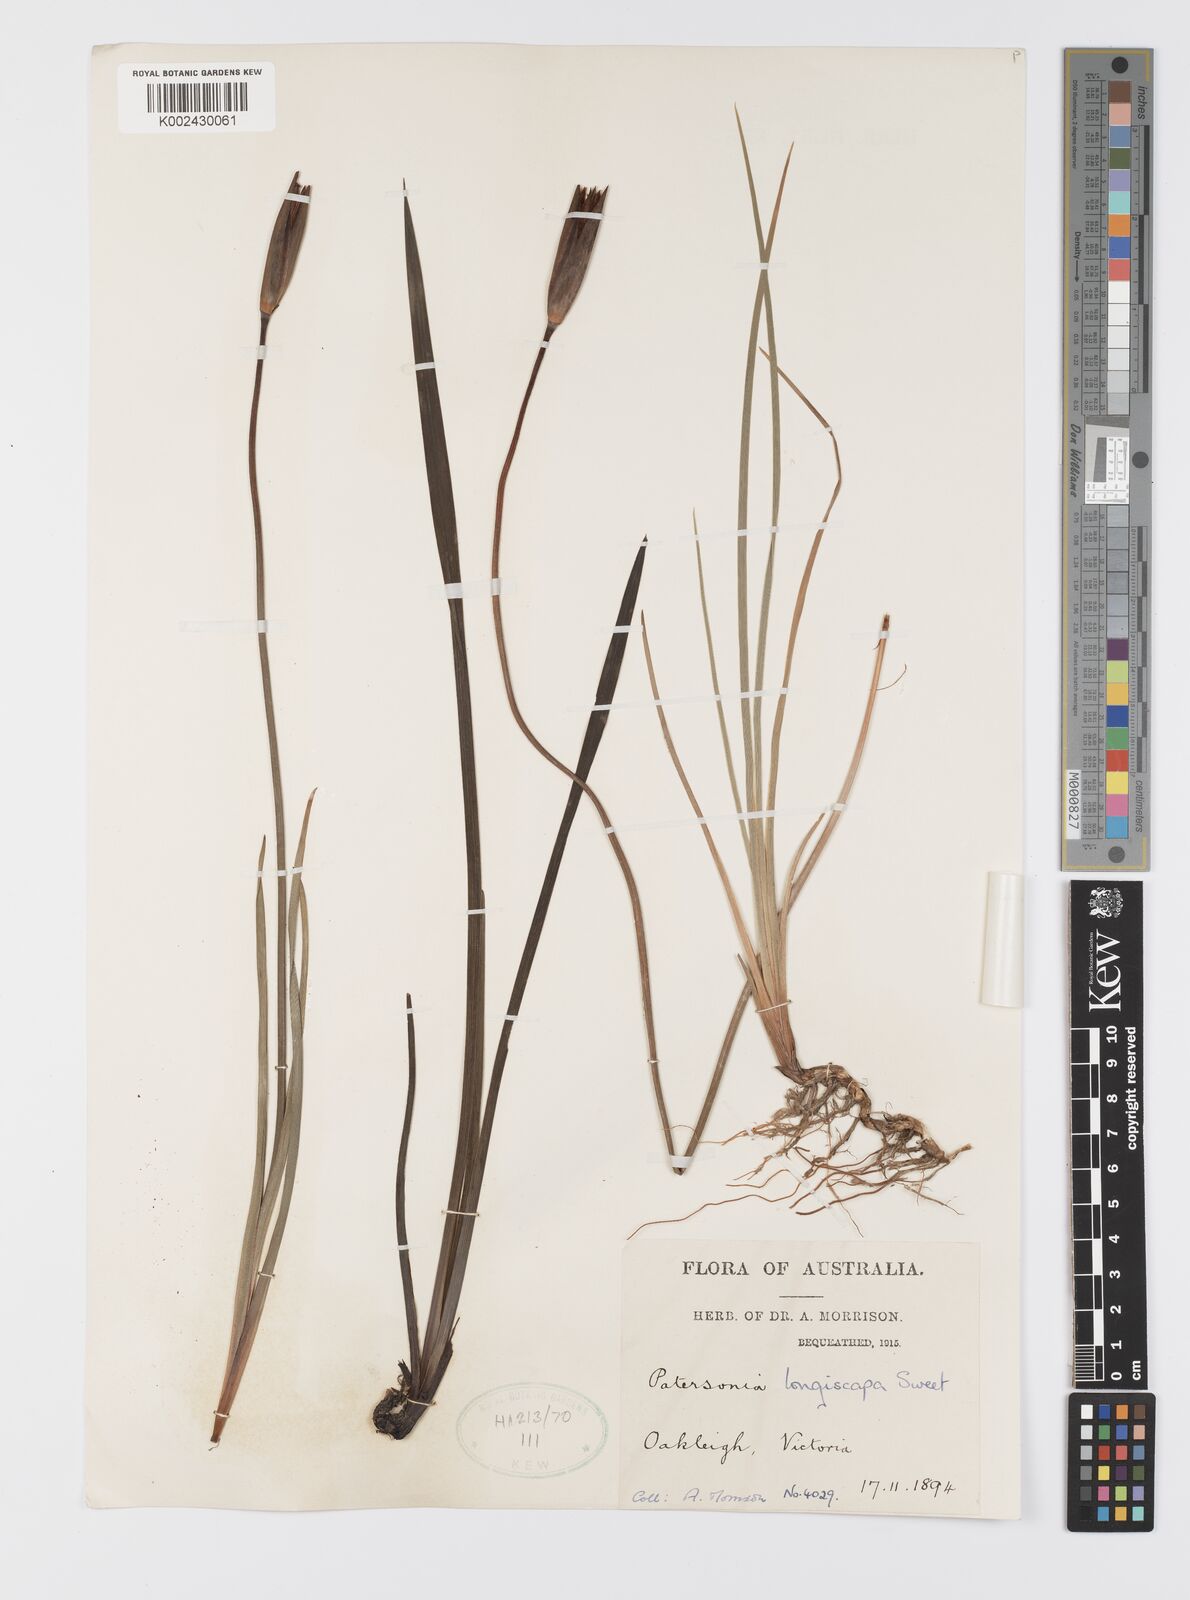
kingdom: Plantae
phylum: Tracheophyta
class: Liliopsida
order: Asparagales
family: Iridaceae
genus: Patersonia
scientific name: Patersonia occidentalis
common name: Long purple-flag
